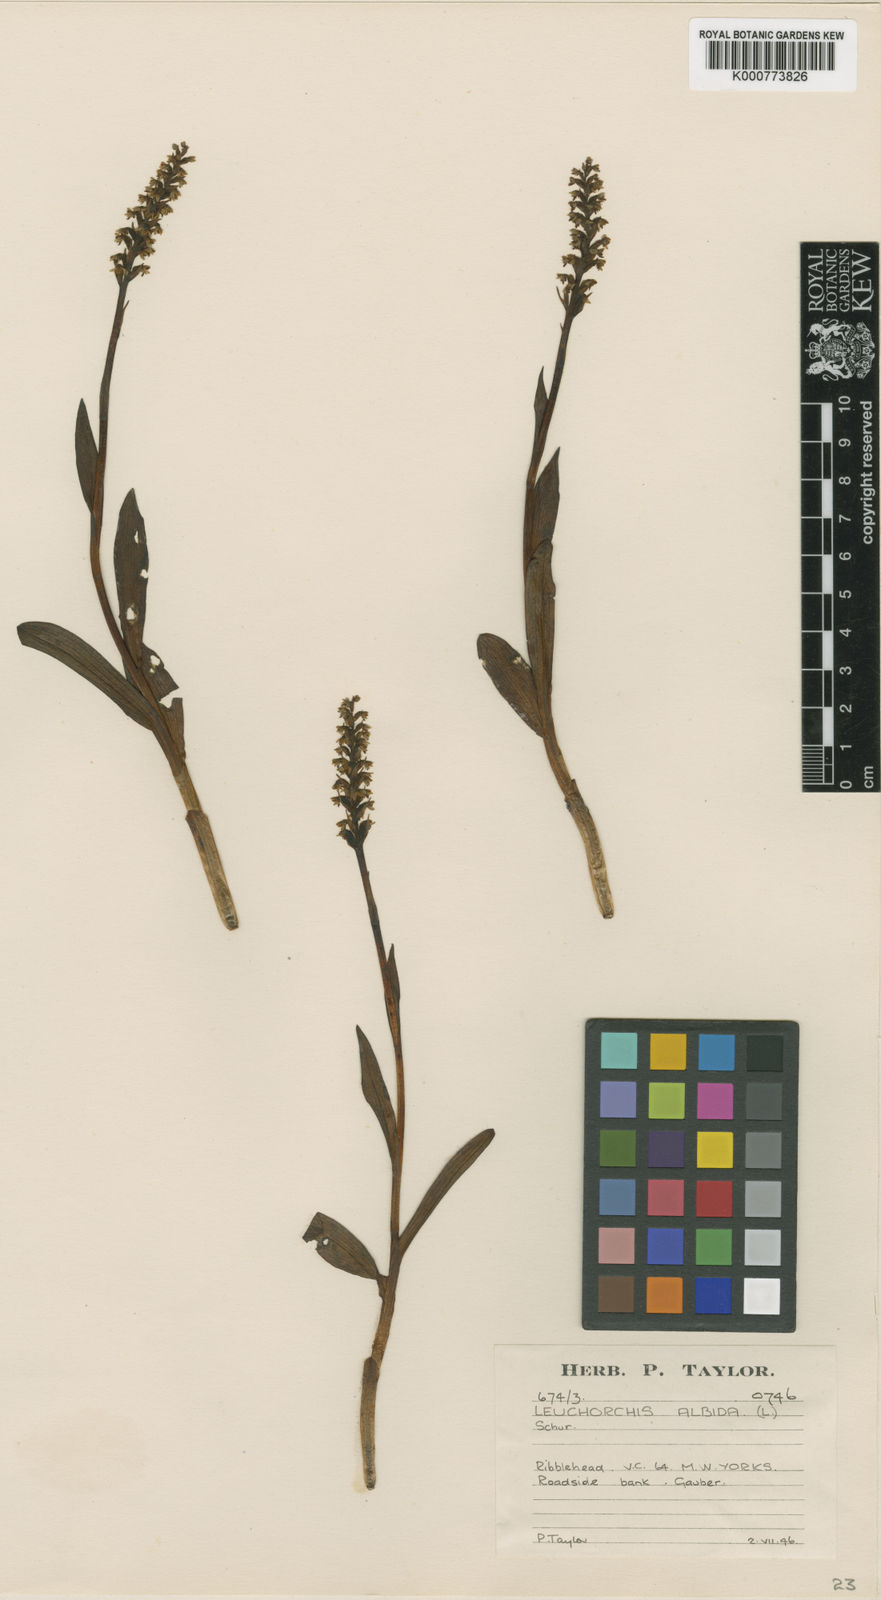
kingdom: Plantae
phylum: Tracheophyta
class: Liliopsida
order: Asparagales
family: Orchidaceae
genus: Pseudorchis
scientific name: Pseudorchis
